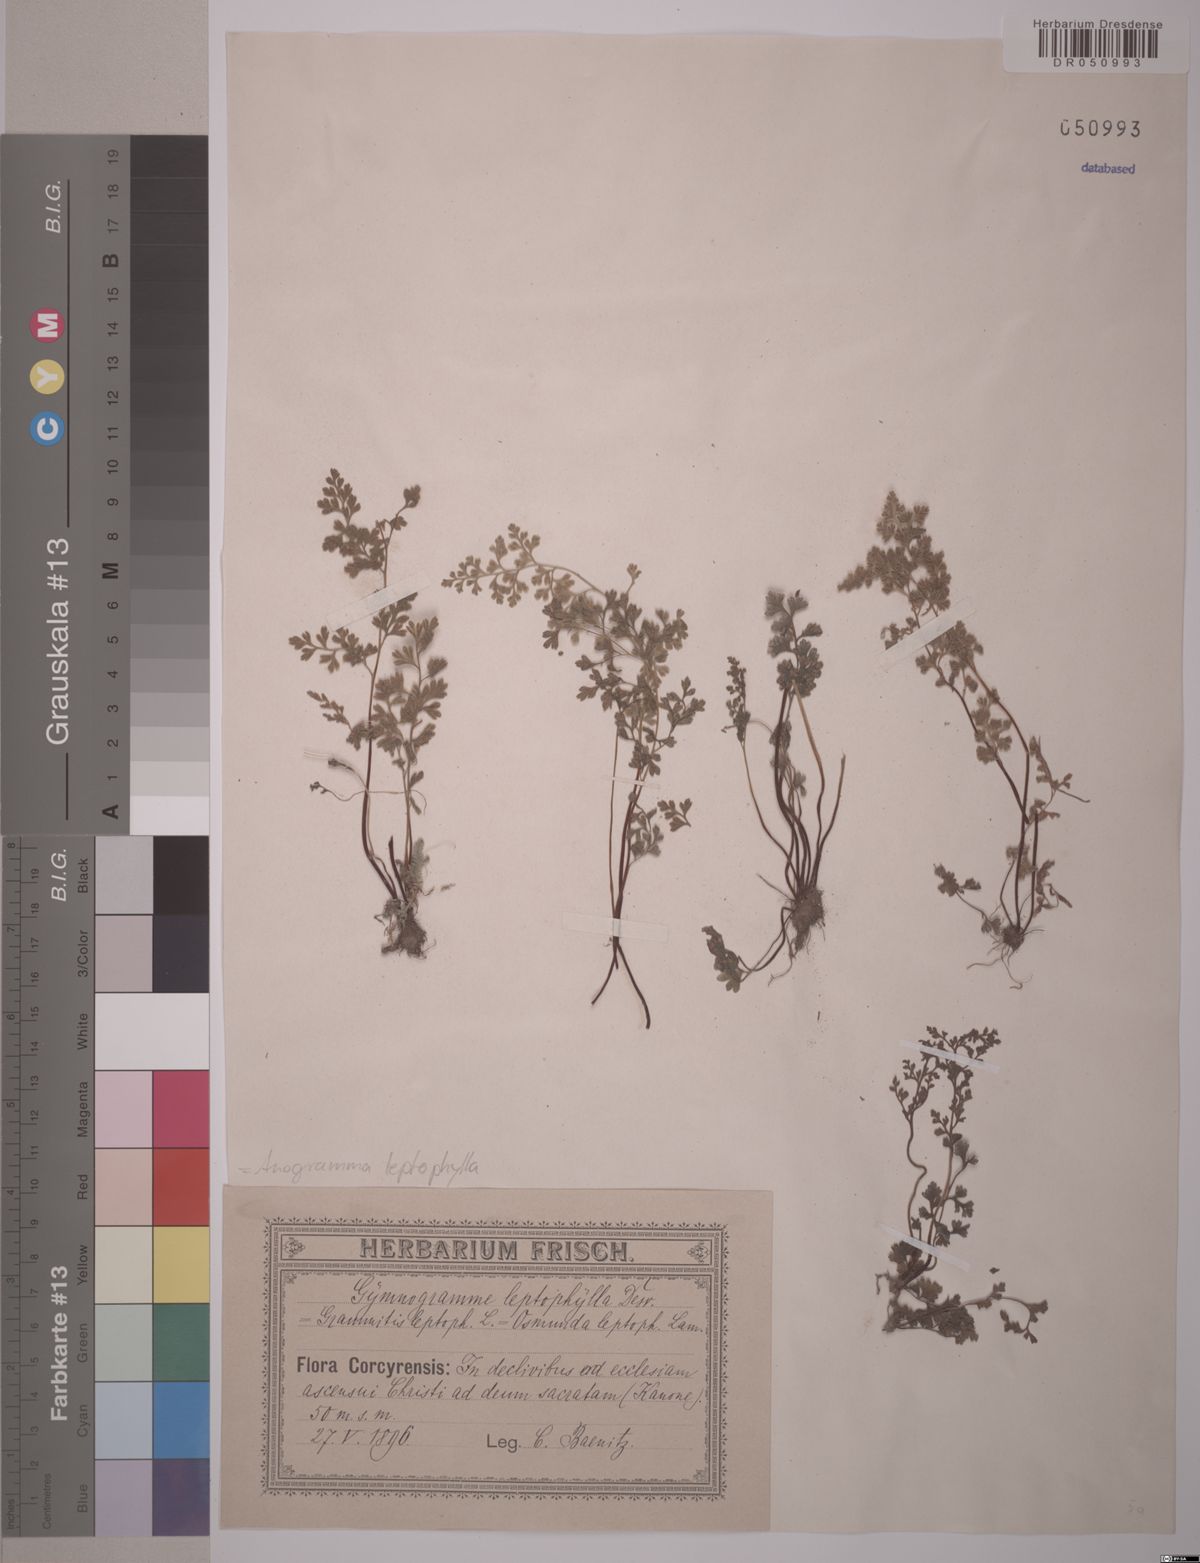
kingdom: Plantae
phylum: Tracheophyta
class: Polypodiopsida
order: Polypodiales
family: Pteridaceae
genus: Anogramma
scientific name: Anogramma leptophylla
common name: Jersey fern
